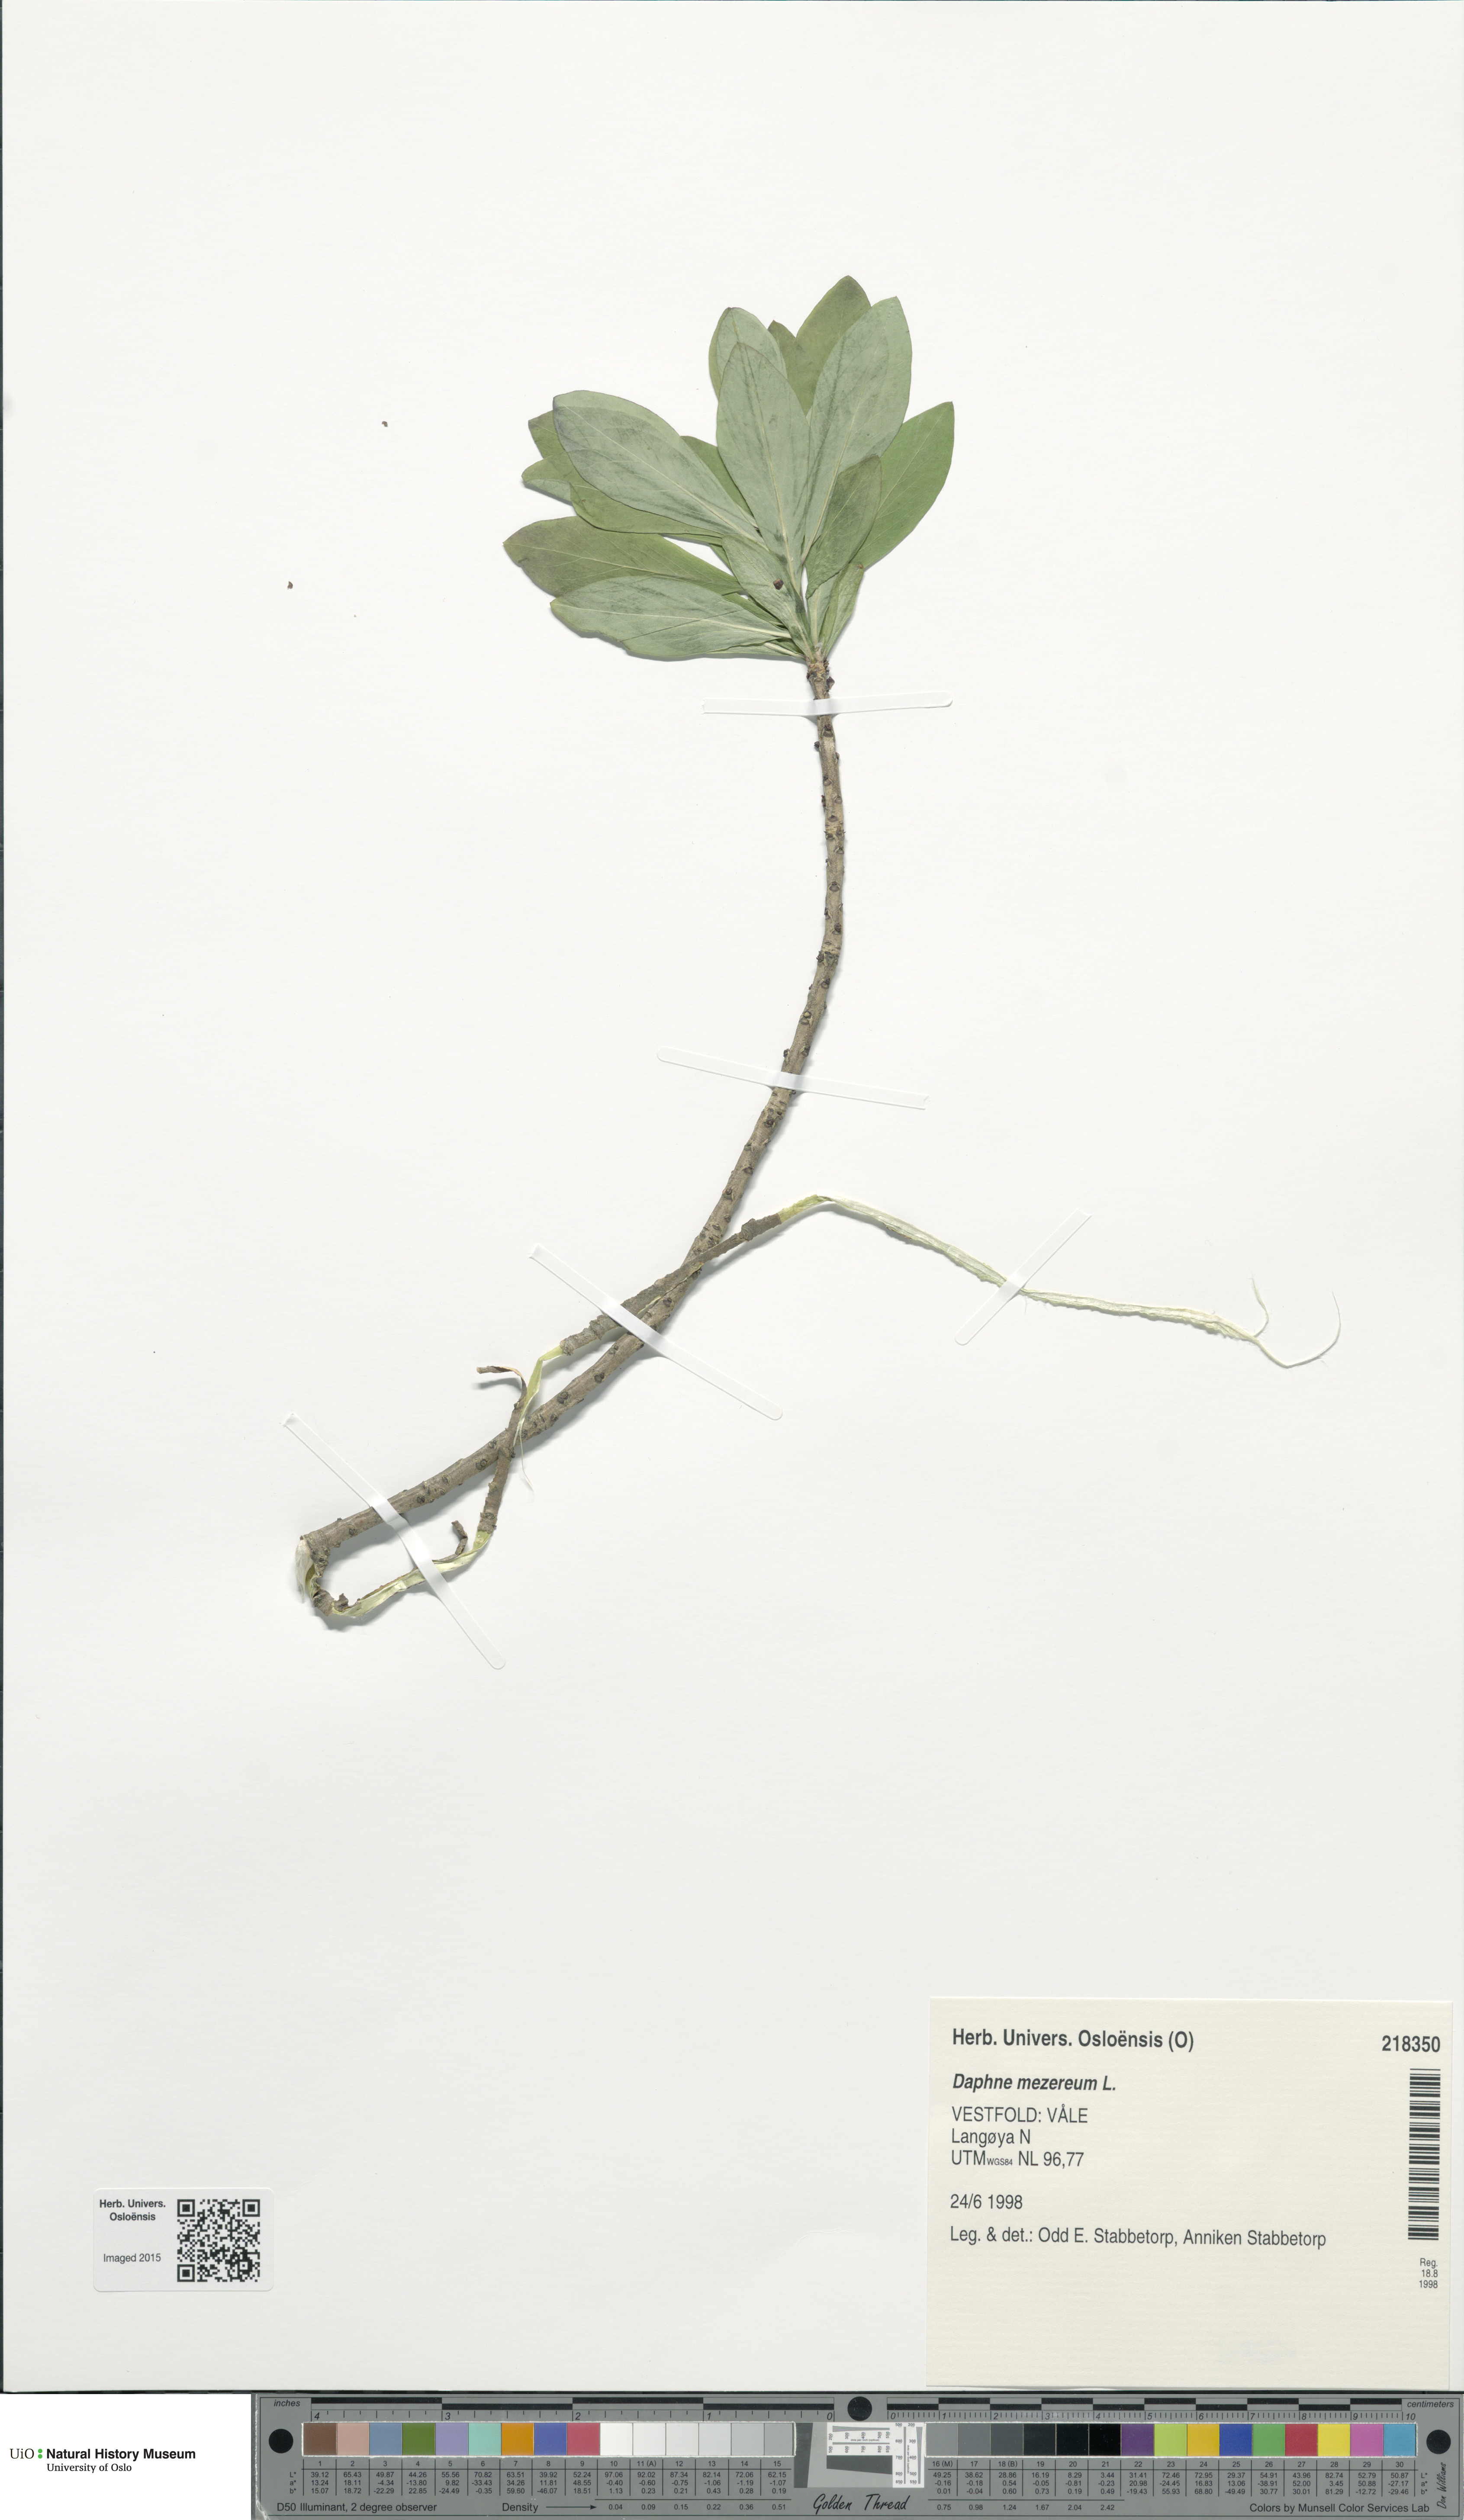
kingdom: Plantae
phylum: Tracheophyta
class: Magnoliopsida
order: Malvales
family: Thymelaeaceae
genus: Daphne
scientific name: Daphne mezereum
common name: Mezereon
